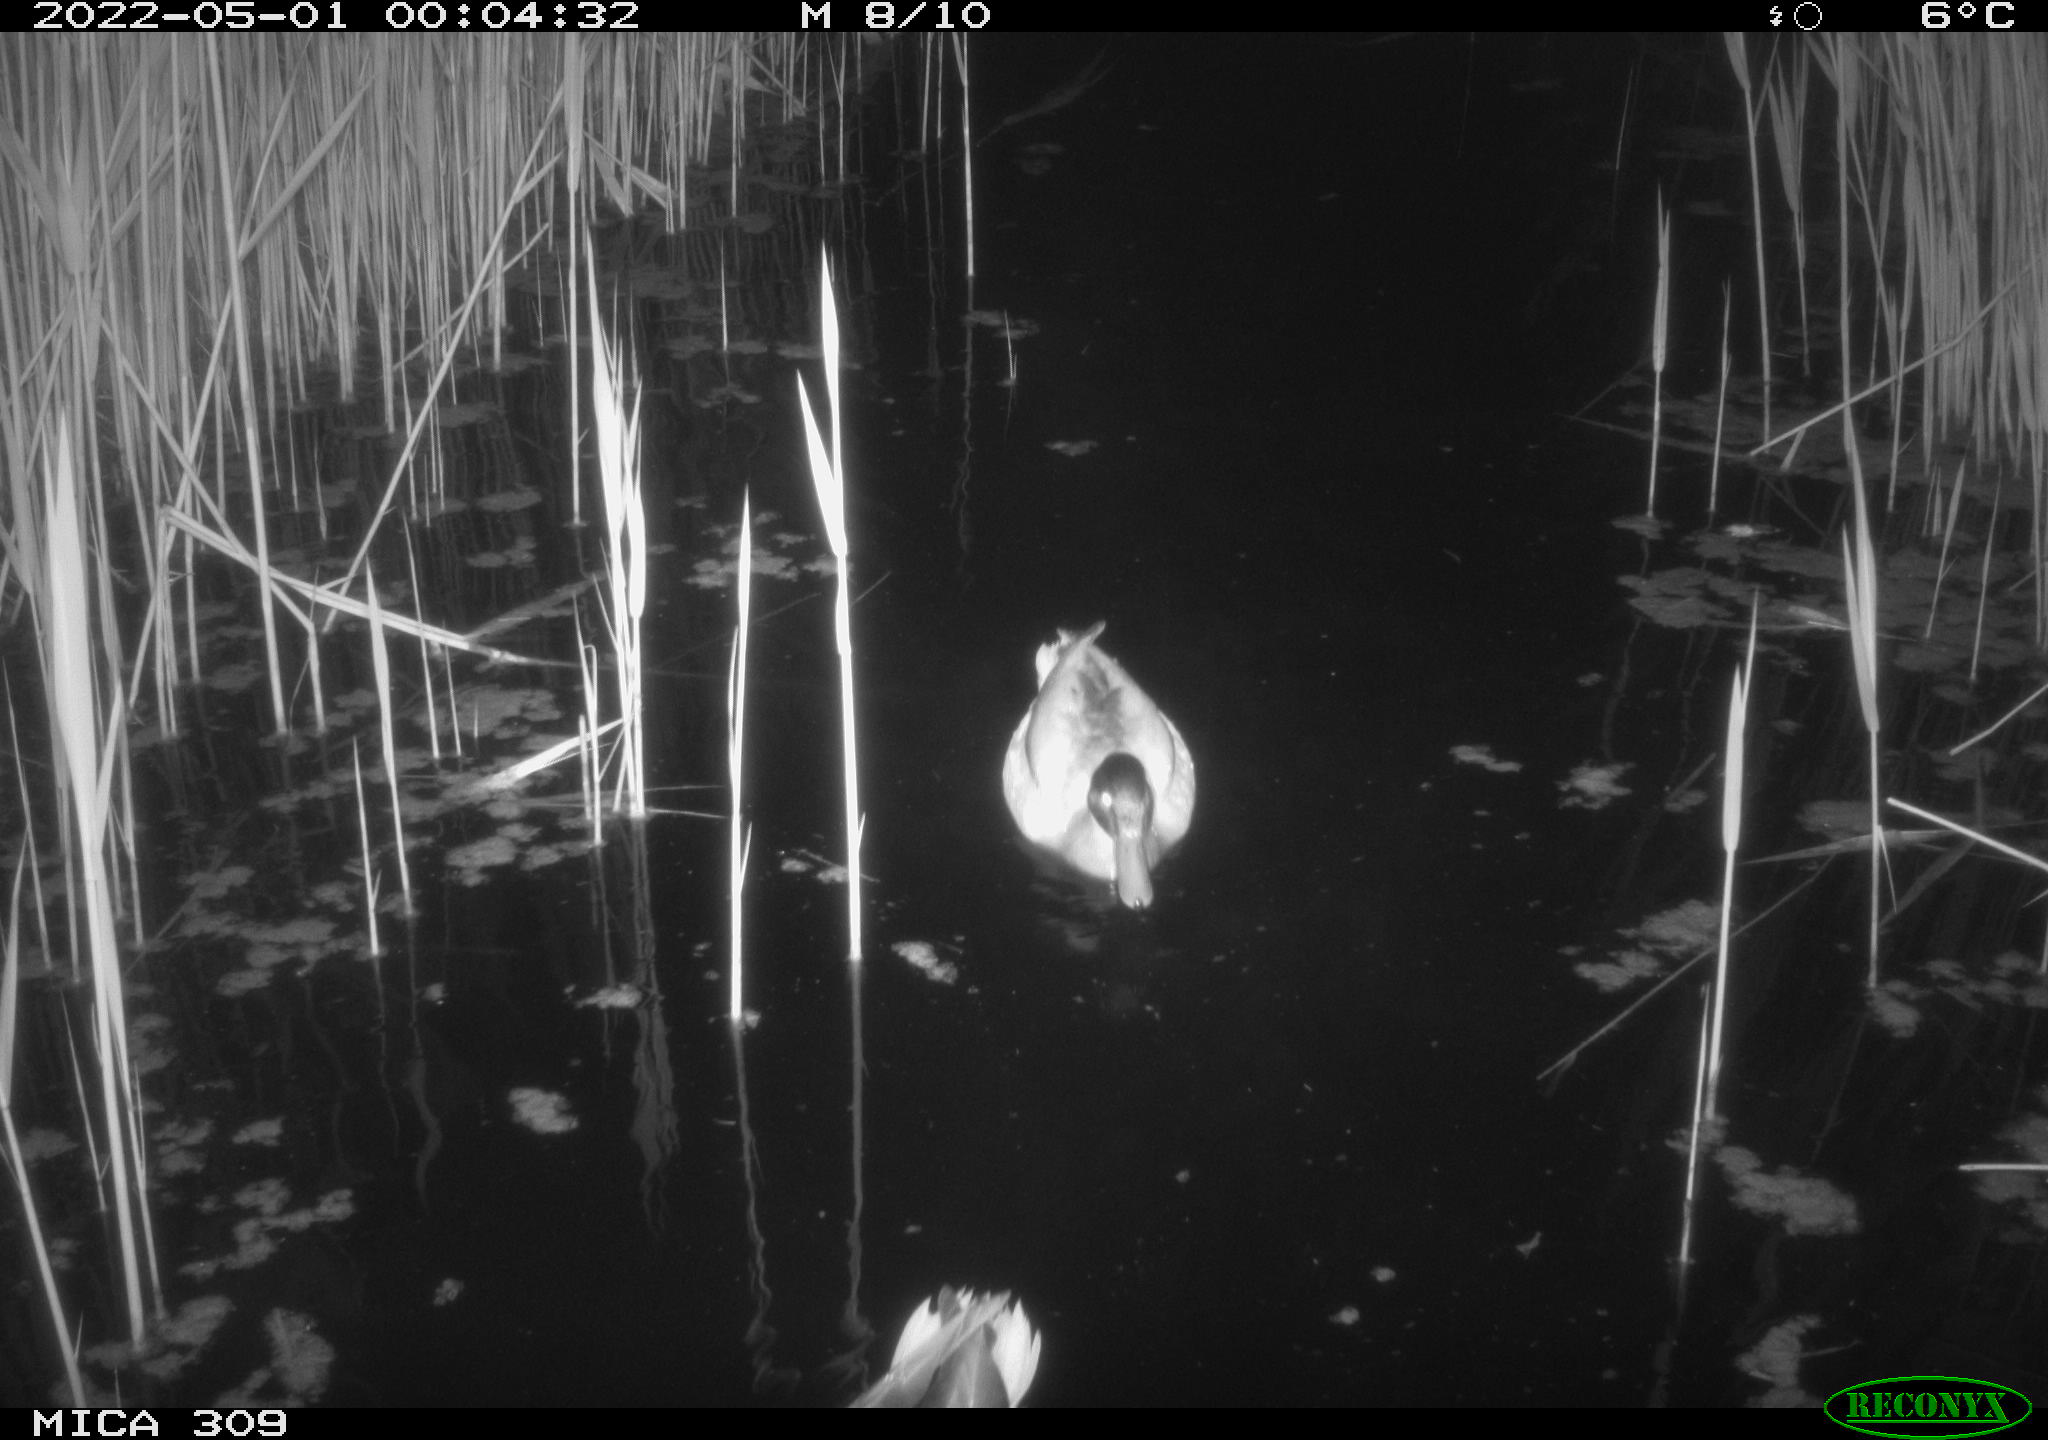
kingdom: Animalia
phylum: Chordata
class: Aves
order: Gruiformes
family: Rallidae
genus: Gallinula
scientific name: Gallinula chloropus
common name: Common moorhen
